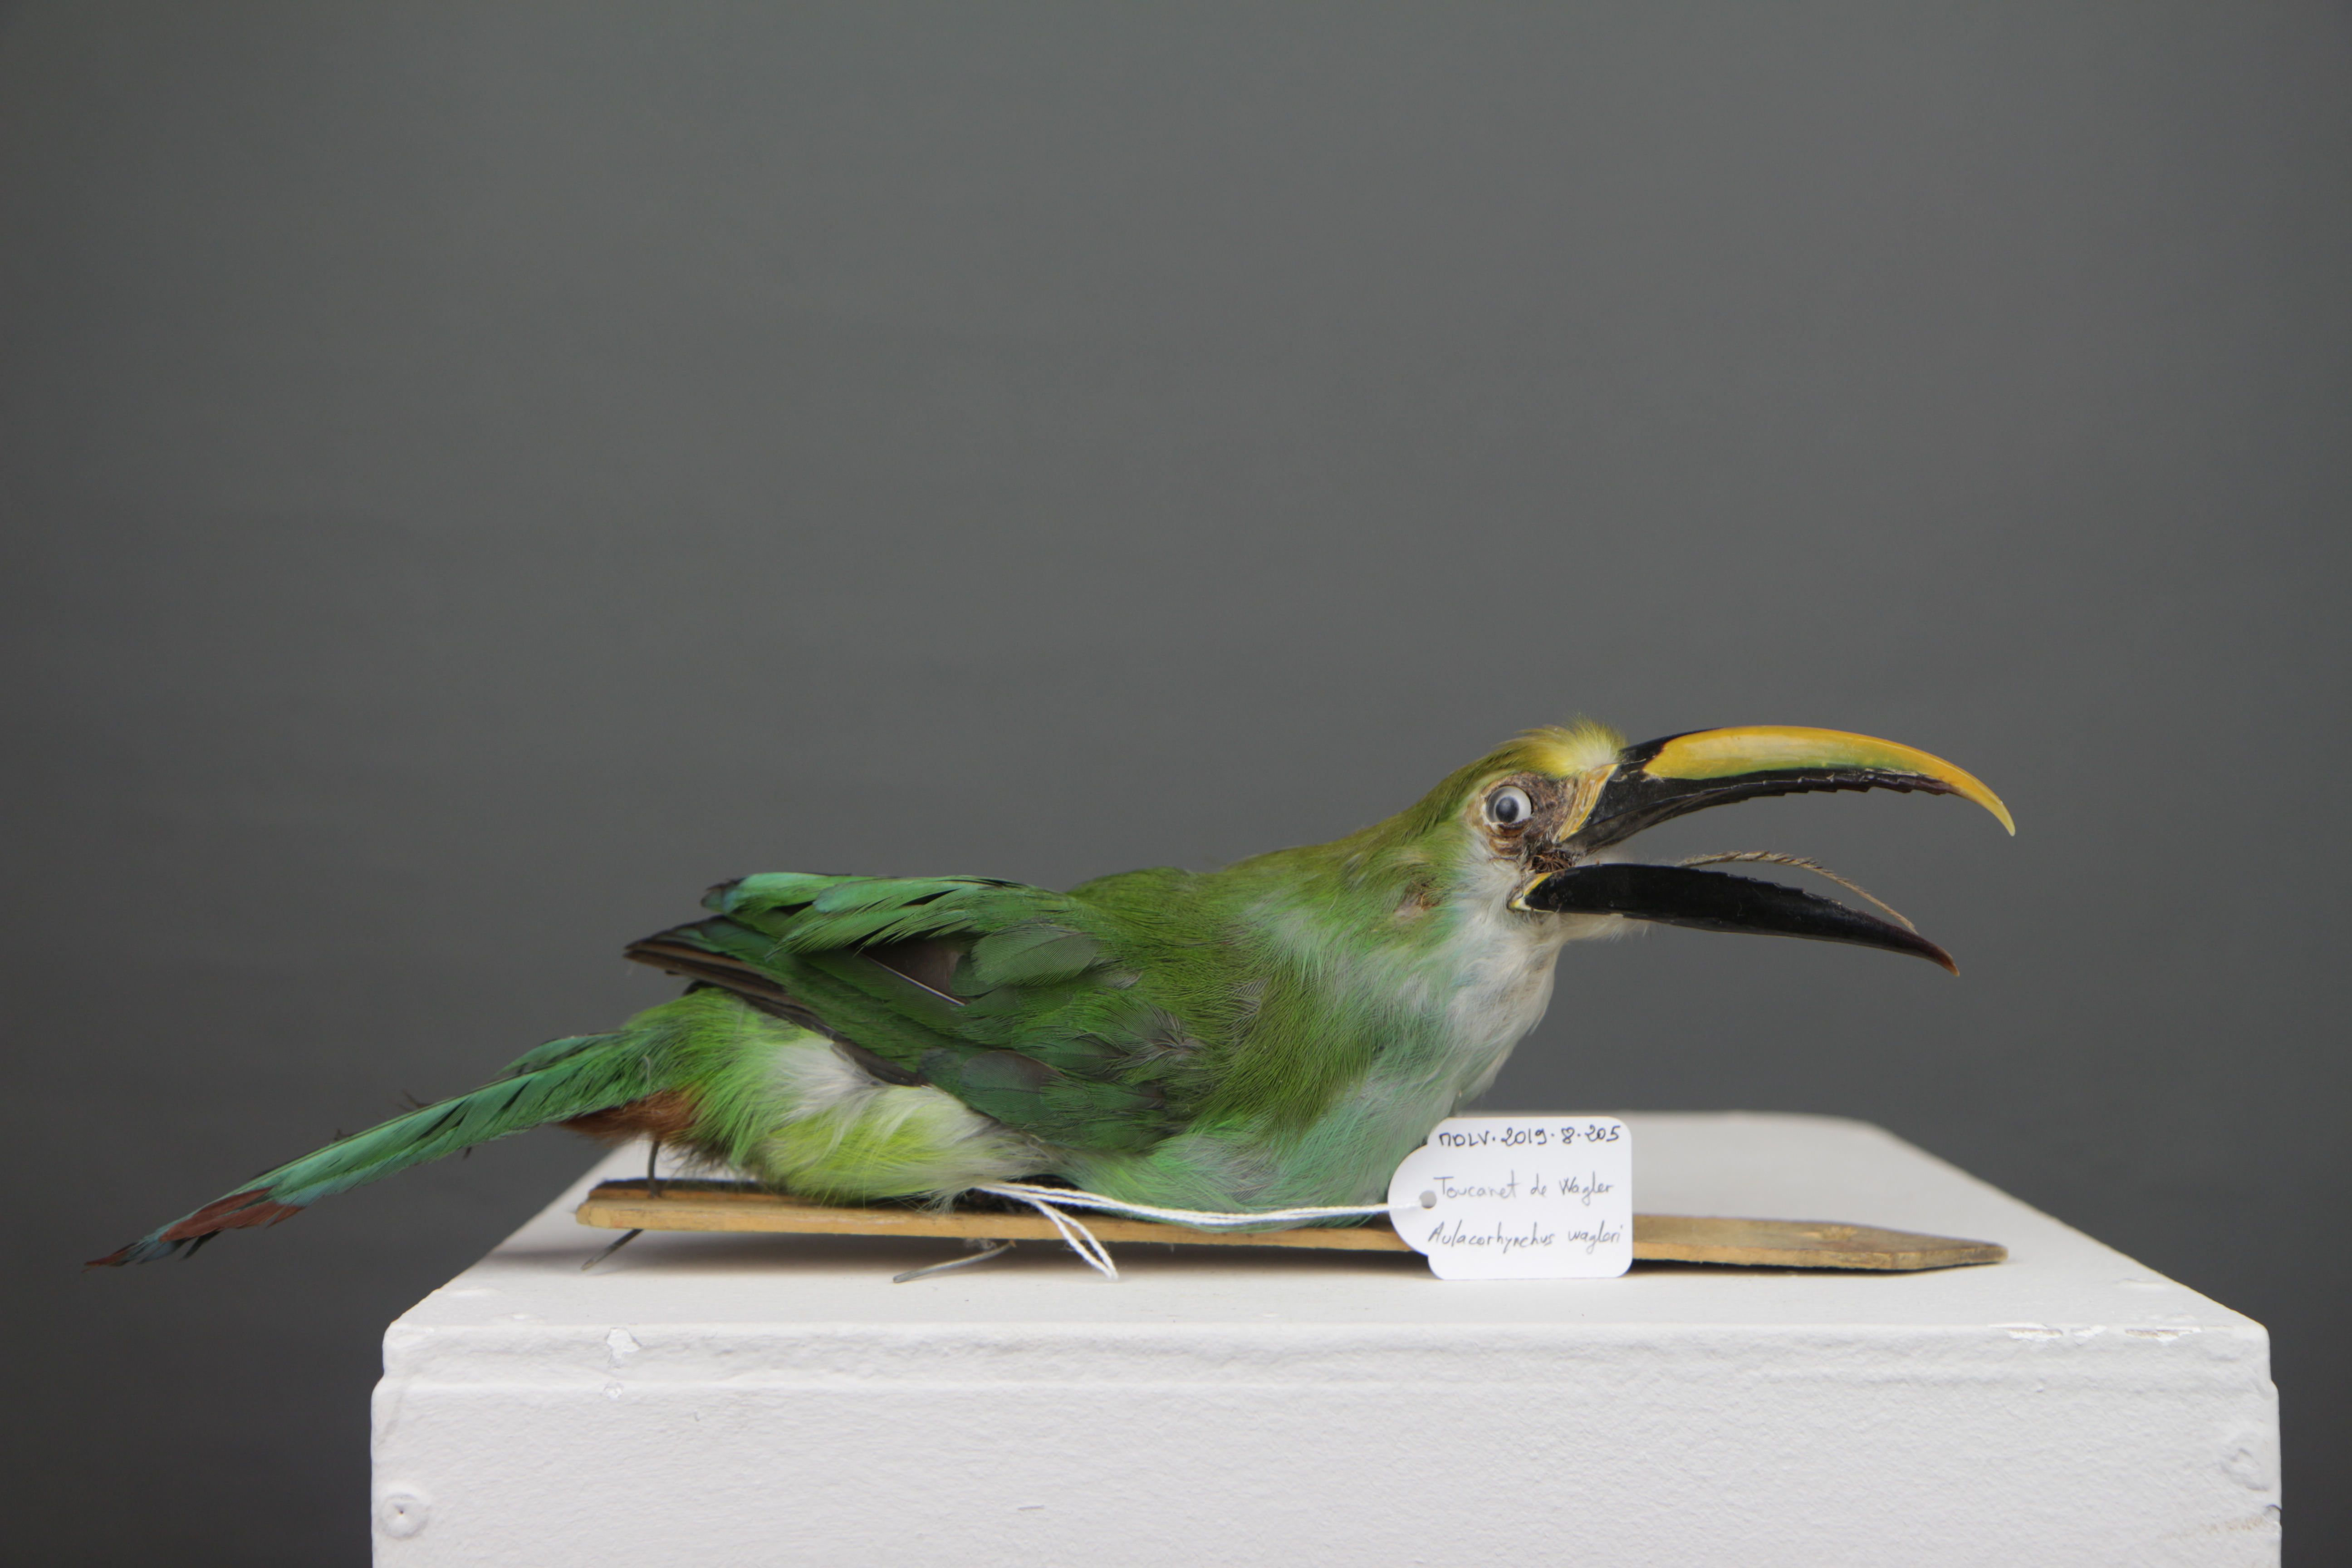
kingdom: Animalia
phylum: Chordata
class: Aves
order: Piciformes
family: Ramphastidae
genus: Aulacorhynchus
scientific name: Aulacorhynchus wagleri
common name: Wagler's toucanet
